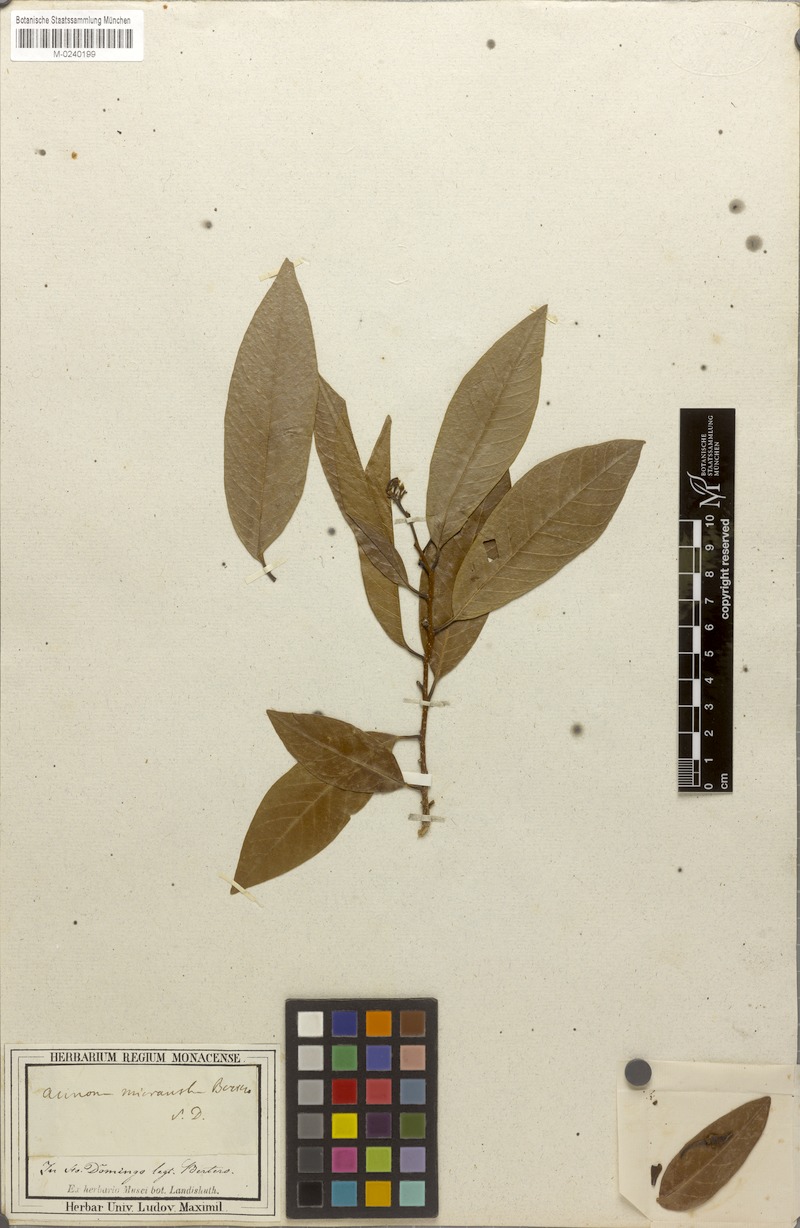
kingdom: Plantae
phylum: Tracheophyta
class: Magnoliopsida
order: Magnoliales
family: Annonaceae
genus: Annona
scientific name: Annona reticulata
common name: Custard apple
